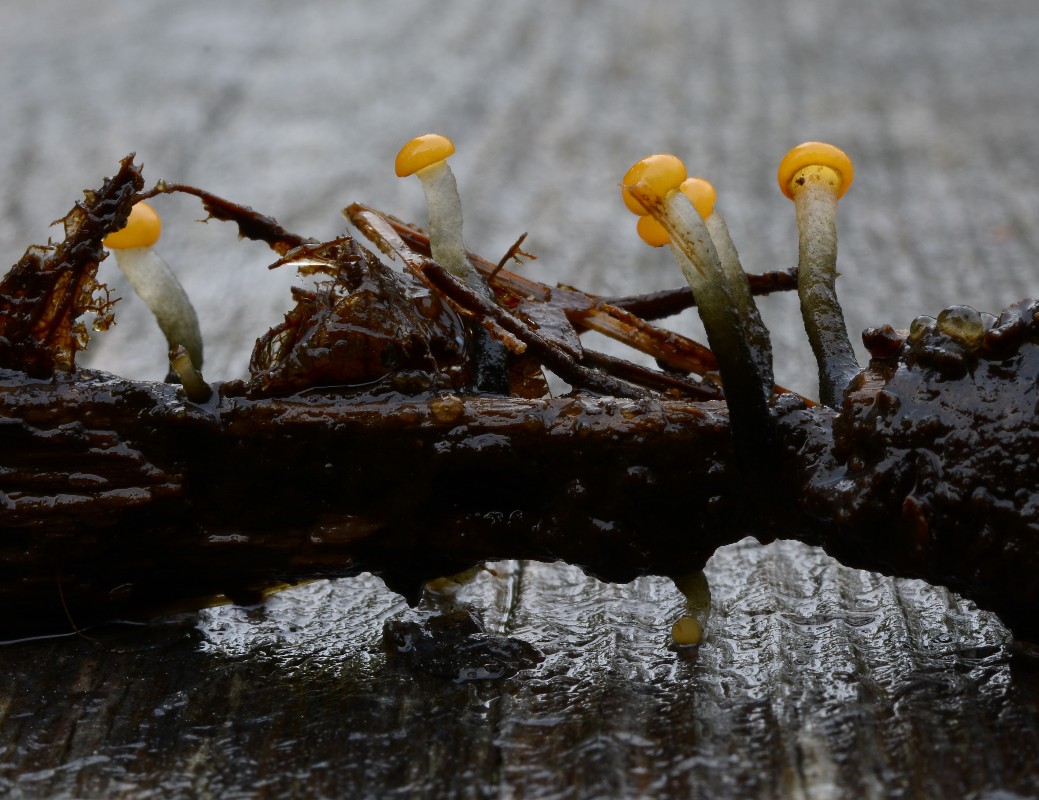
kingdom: Fungi
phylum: Ascomycota
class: Leotiomycetes
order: Helotiales
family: Vibrisseaceae
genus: Vibrissea
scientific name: Vibrissea truncorum
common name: stilket bækskive
